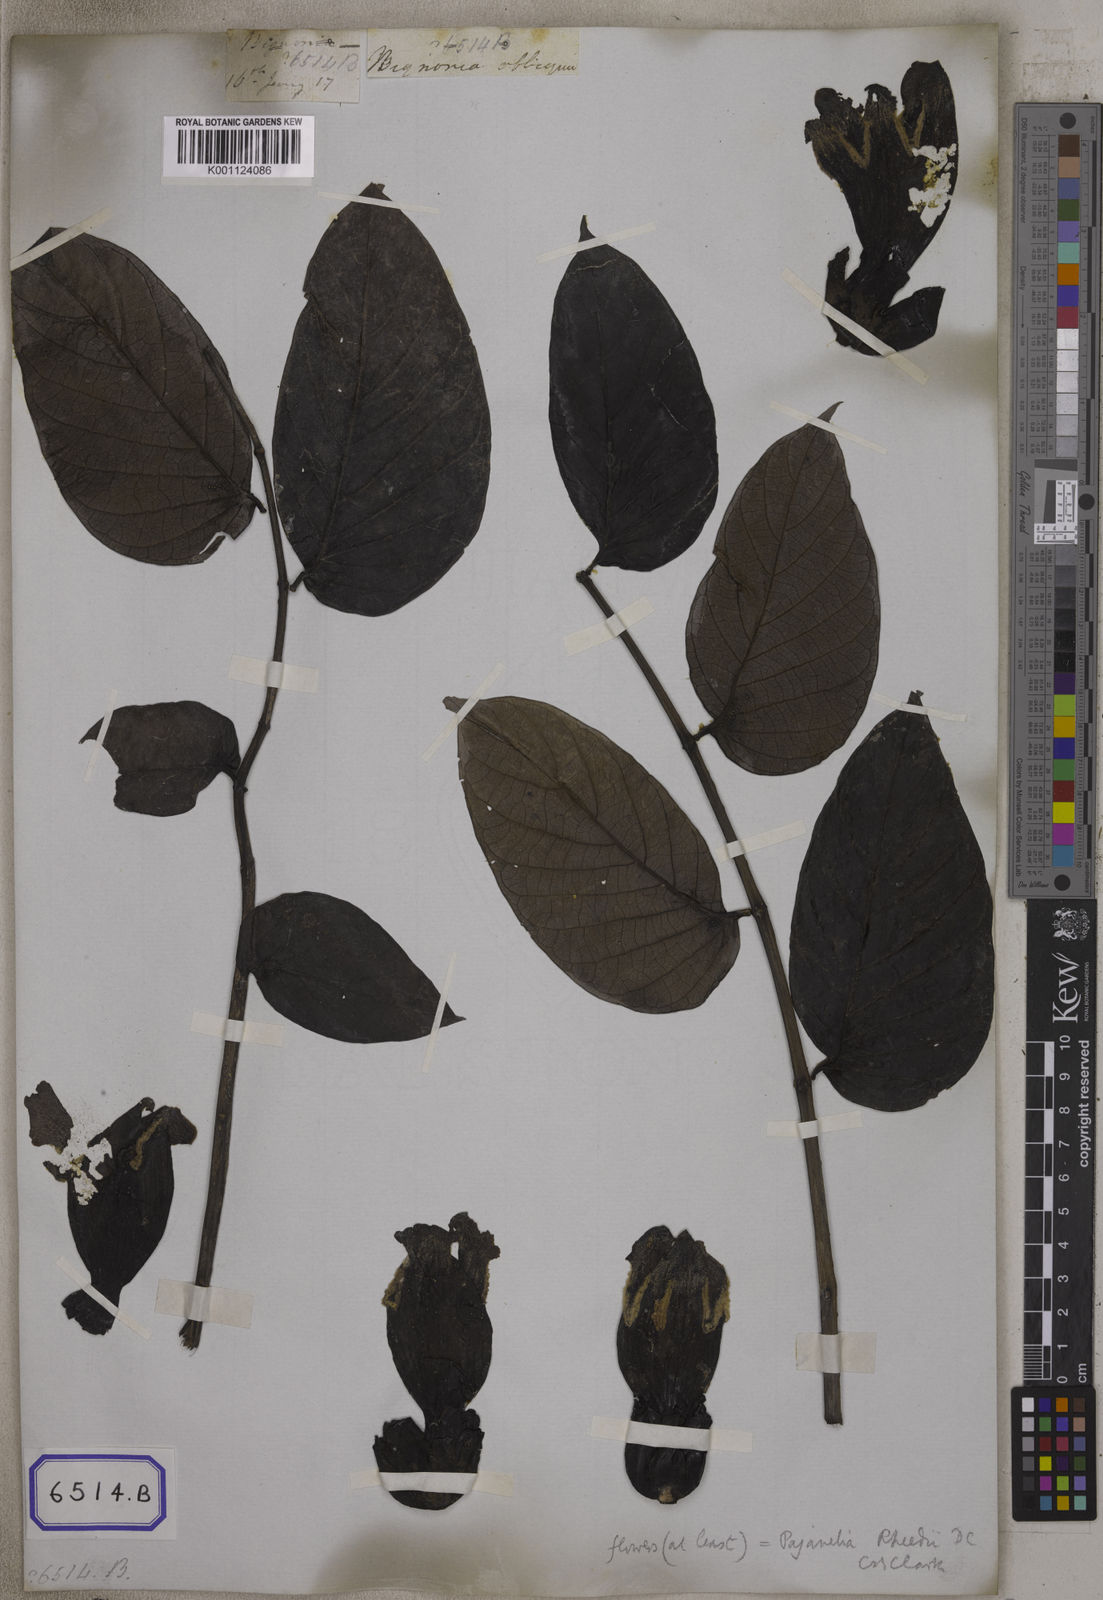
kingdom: Plantae
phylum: Tracheophyta
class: Magnoliopsida
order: Lamiales
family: Bignoniaceae
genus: Oroxylum
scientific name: Oroxylum indicum
